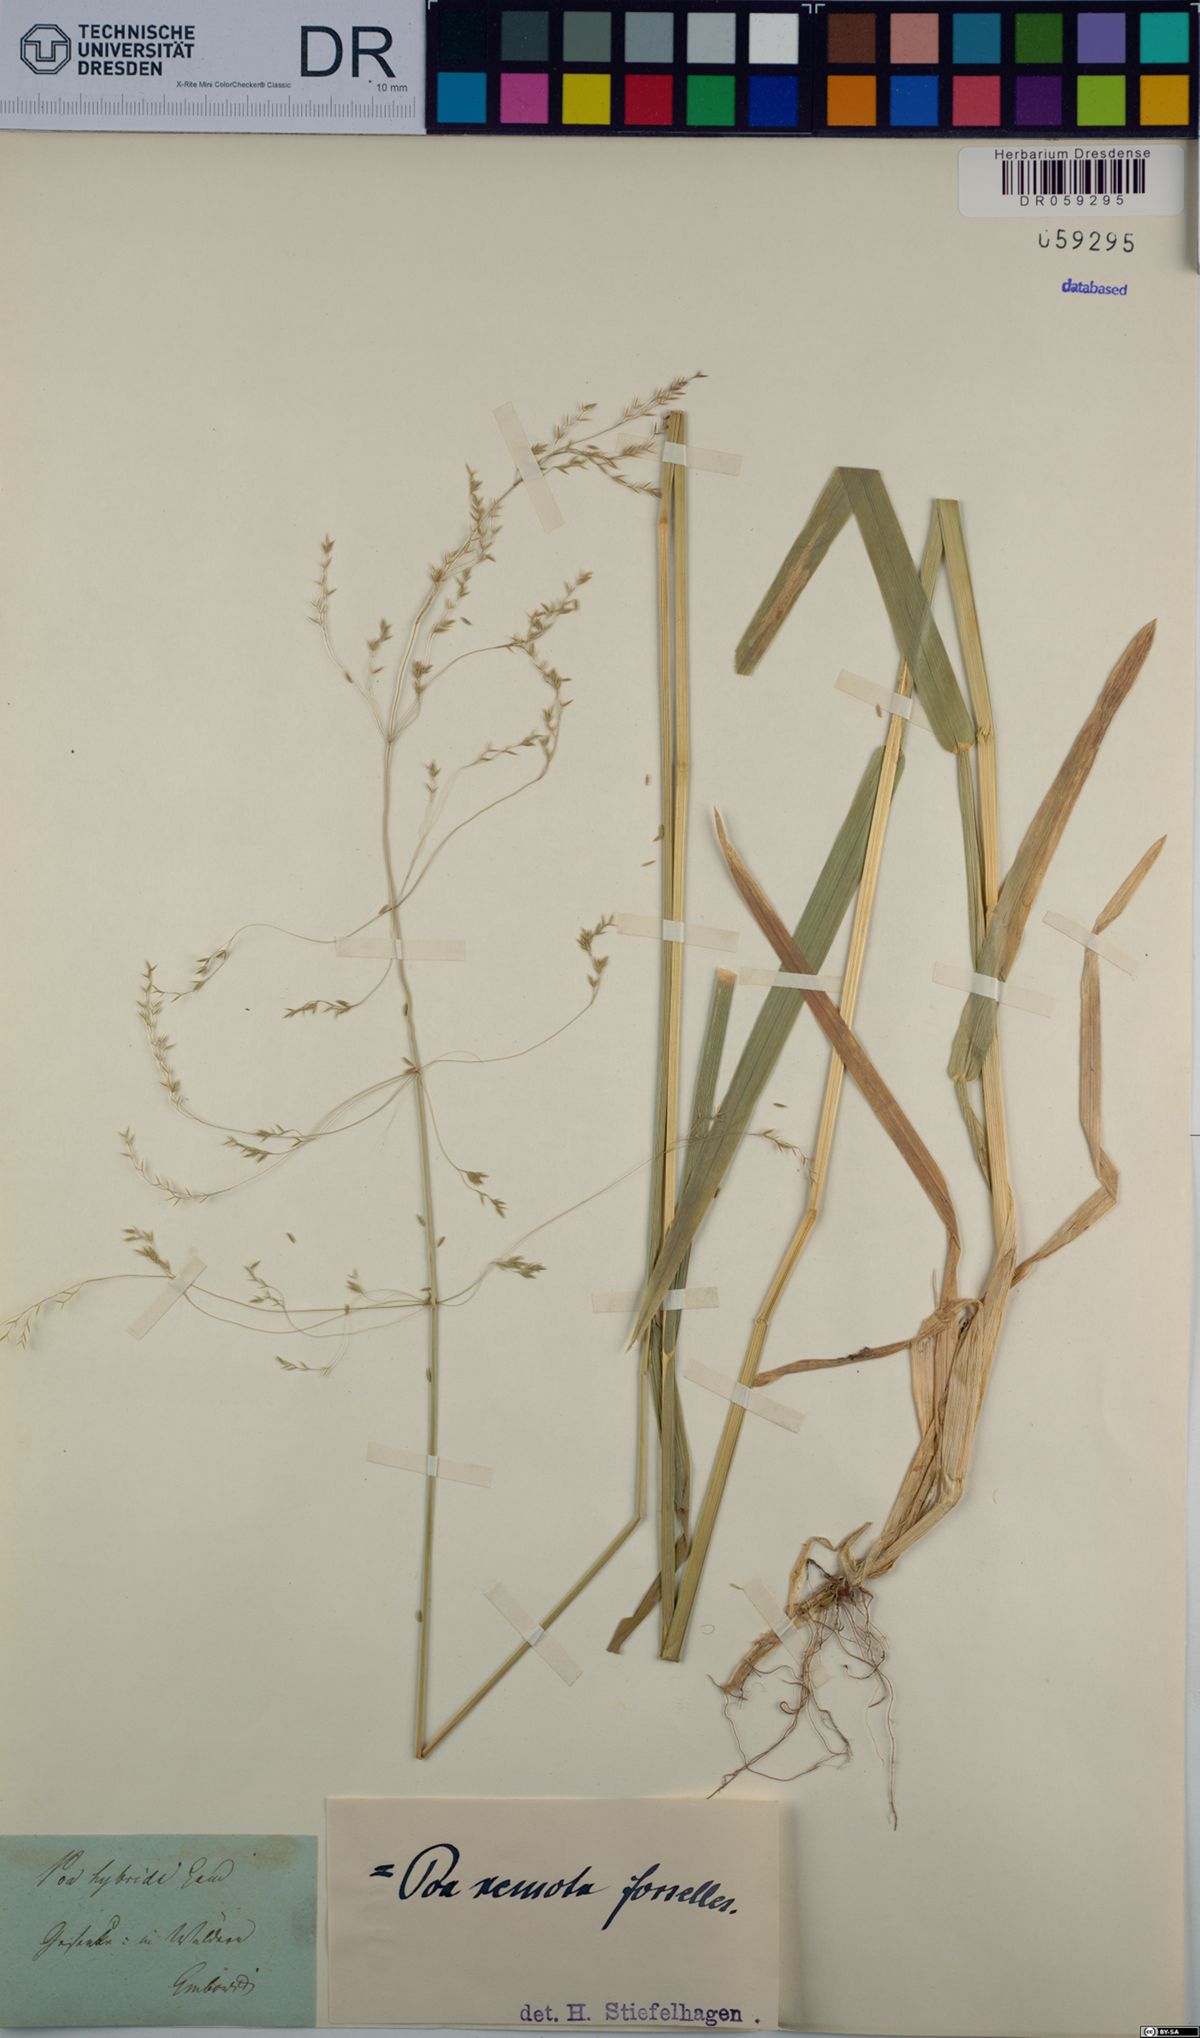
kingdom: Plantae
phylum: Tracheophyta
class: Liliopsida
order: Poales
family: Poaceae
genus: Poa
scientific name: Poa remota
